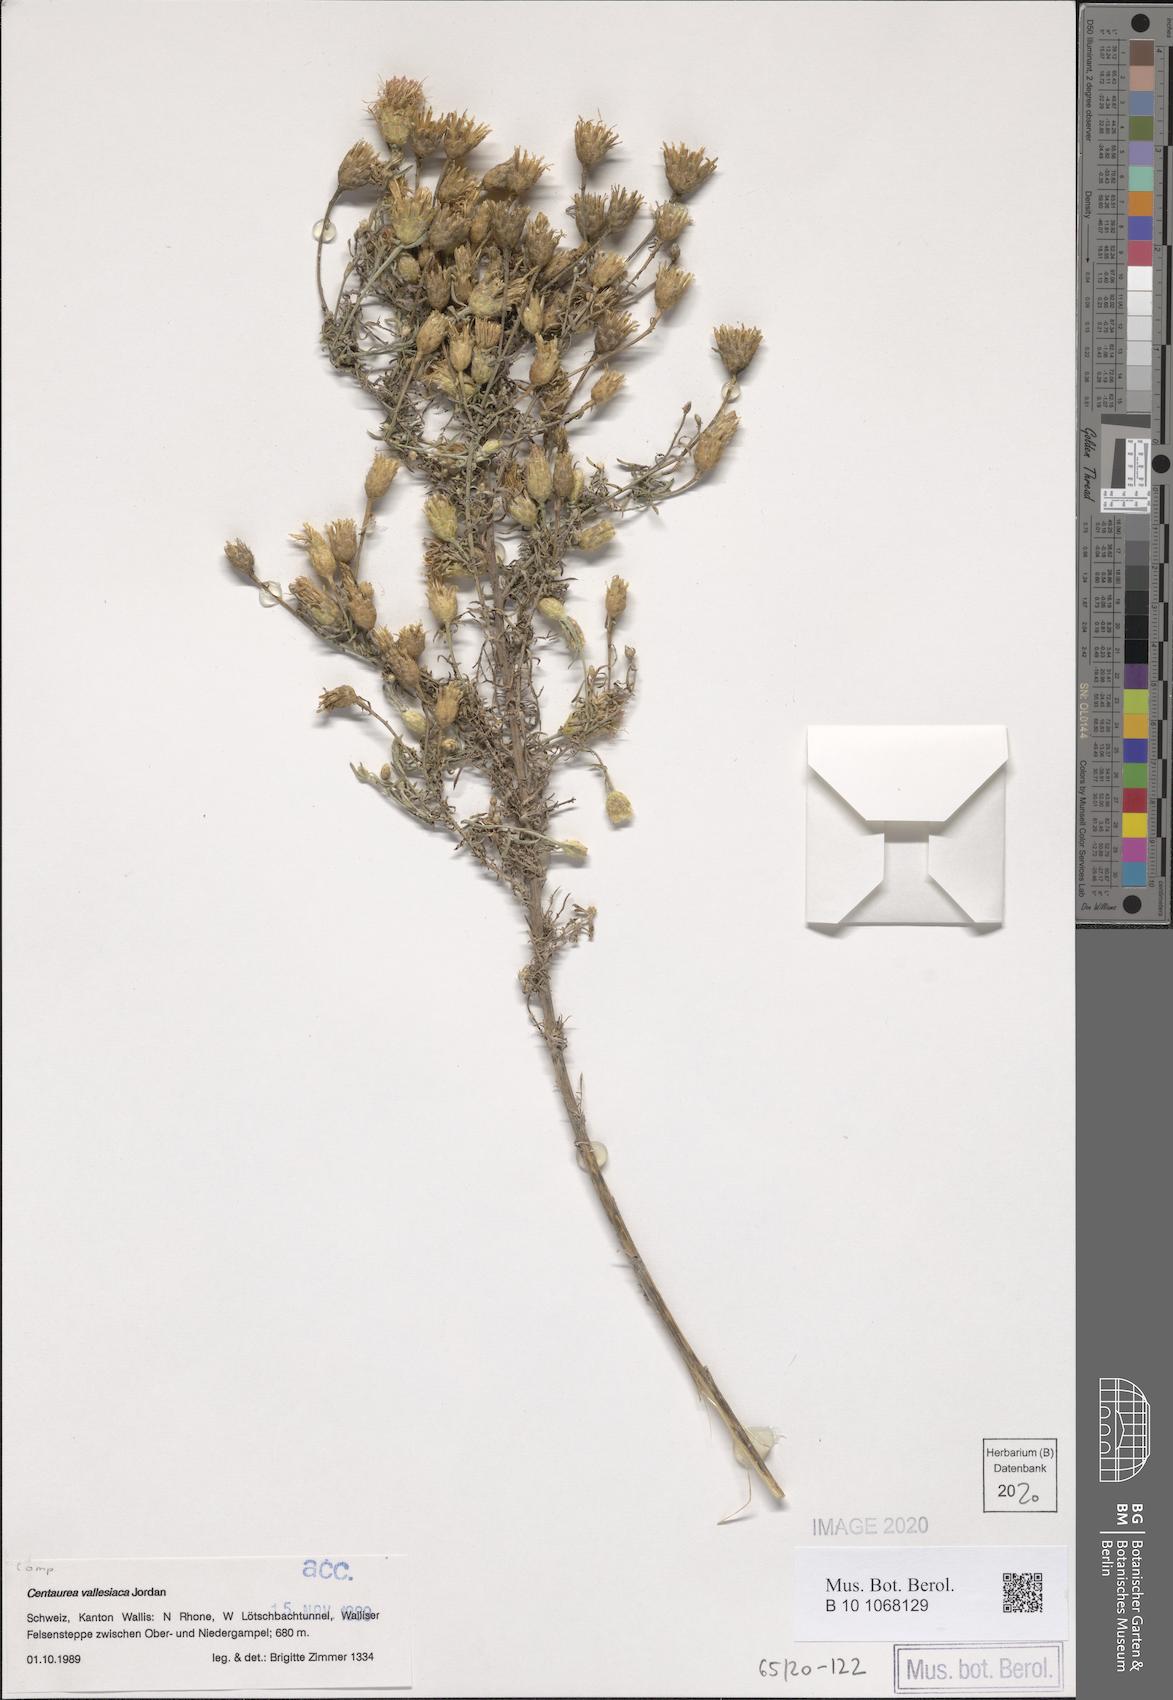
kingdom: Plantae
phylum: Tracheophyta
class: Magnoliopsida
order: Asterales
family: Asteraceae
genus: Centaurea
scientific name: Centaurea valesiaca
